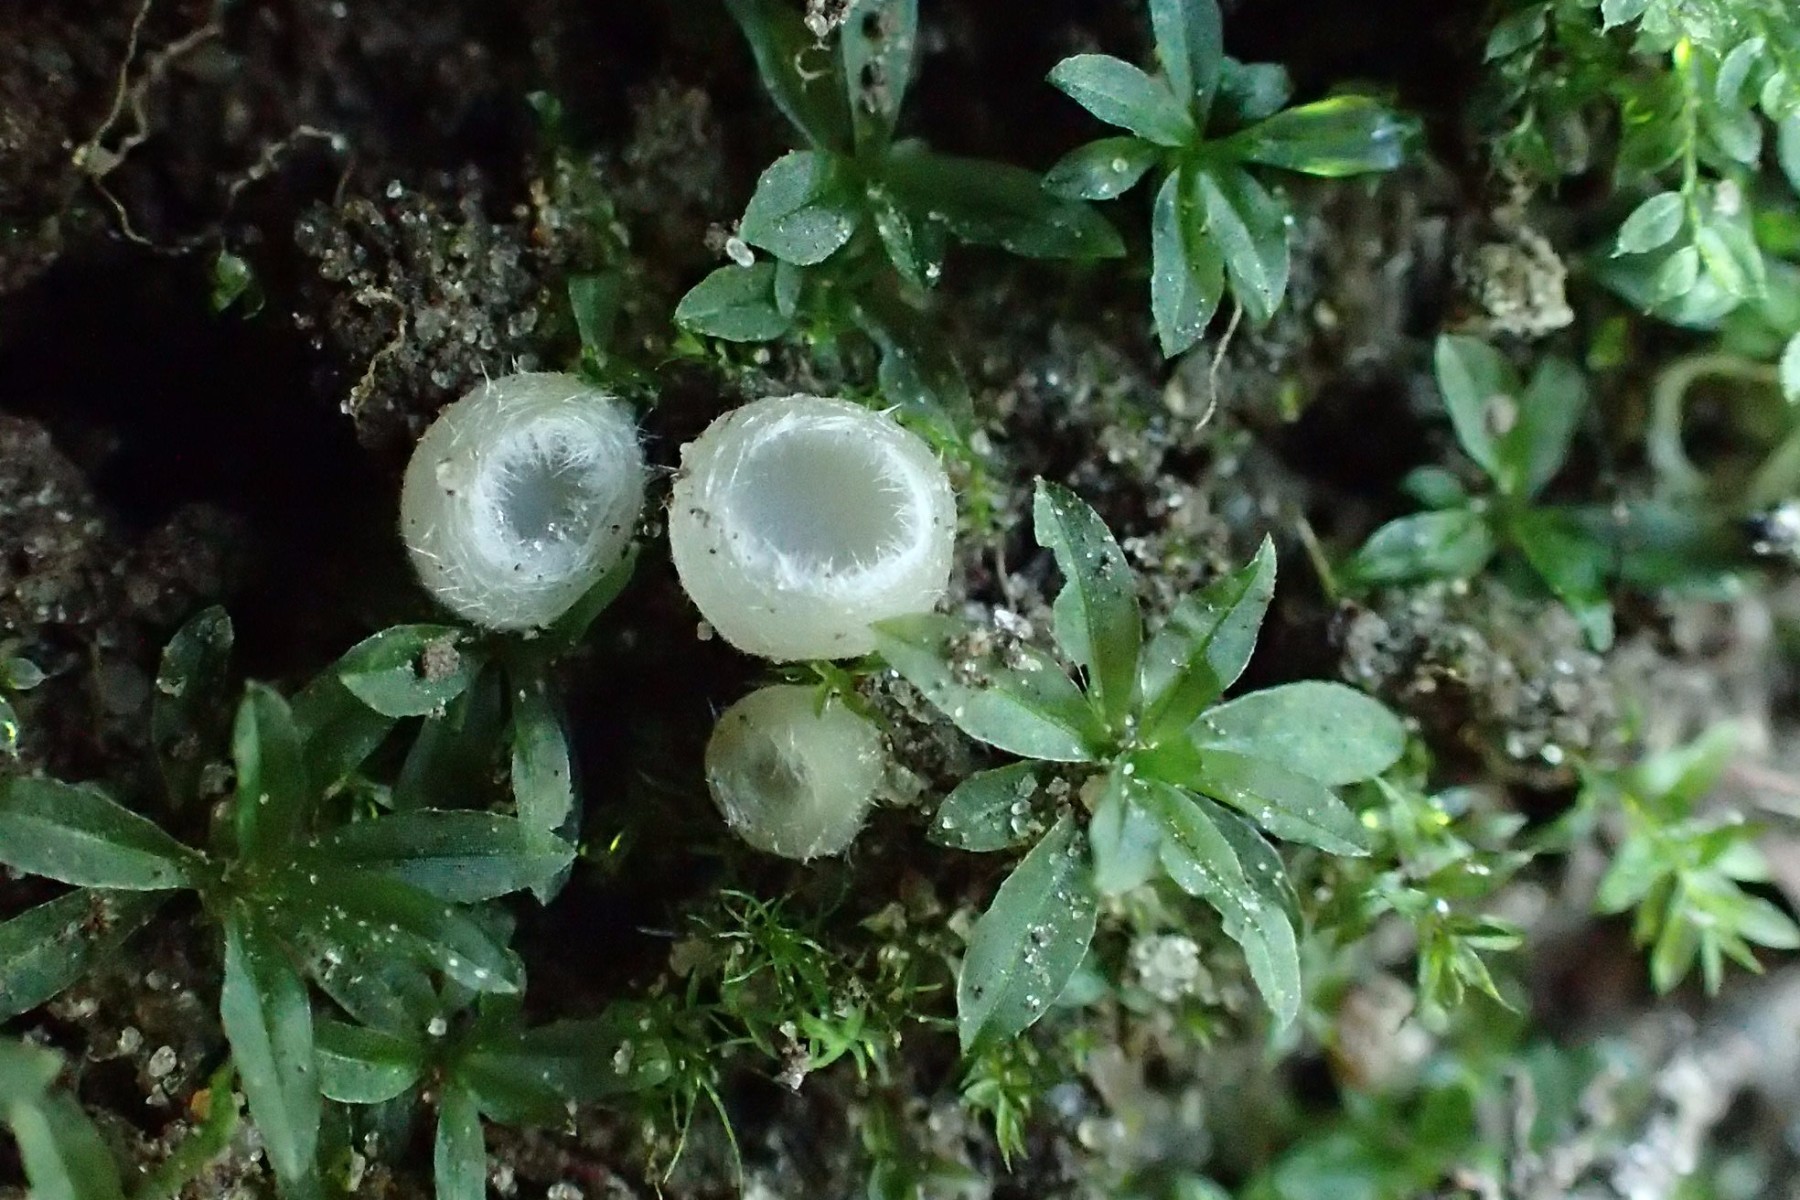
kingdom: Fungi
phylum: Ascomycota
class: Pezizomycetes
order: Pezizales
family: Pyronemataceae
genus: Leucoscypha
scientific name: Leucoscypha leucotricha
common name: smuk hvidbæger
